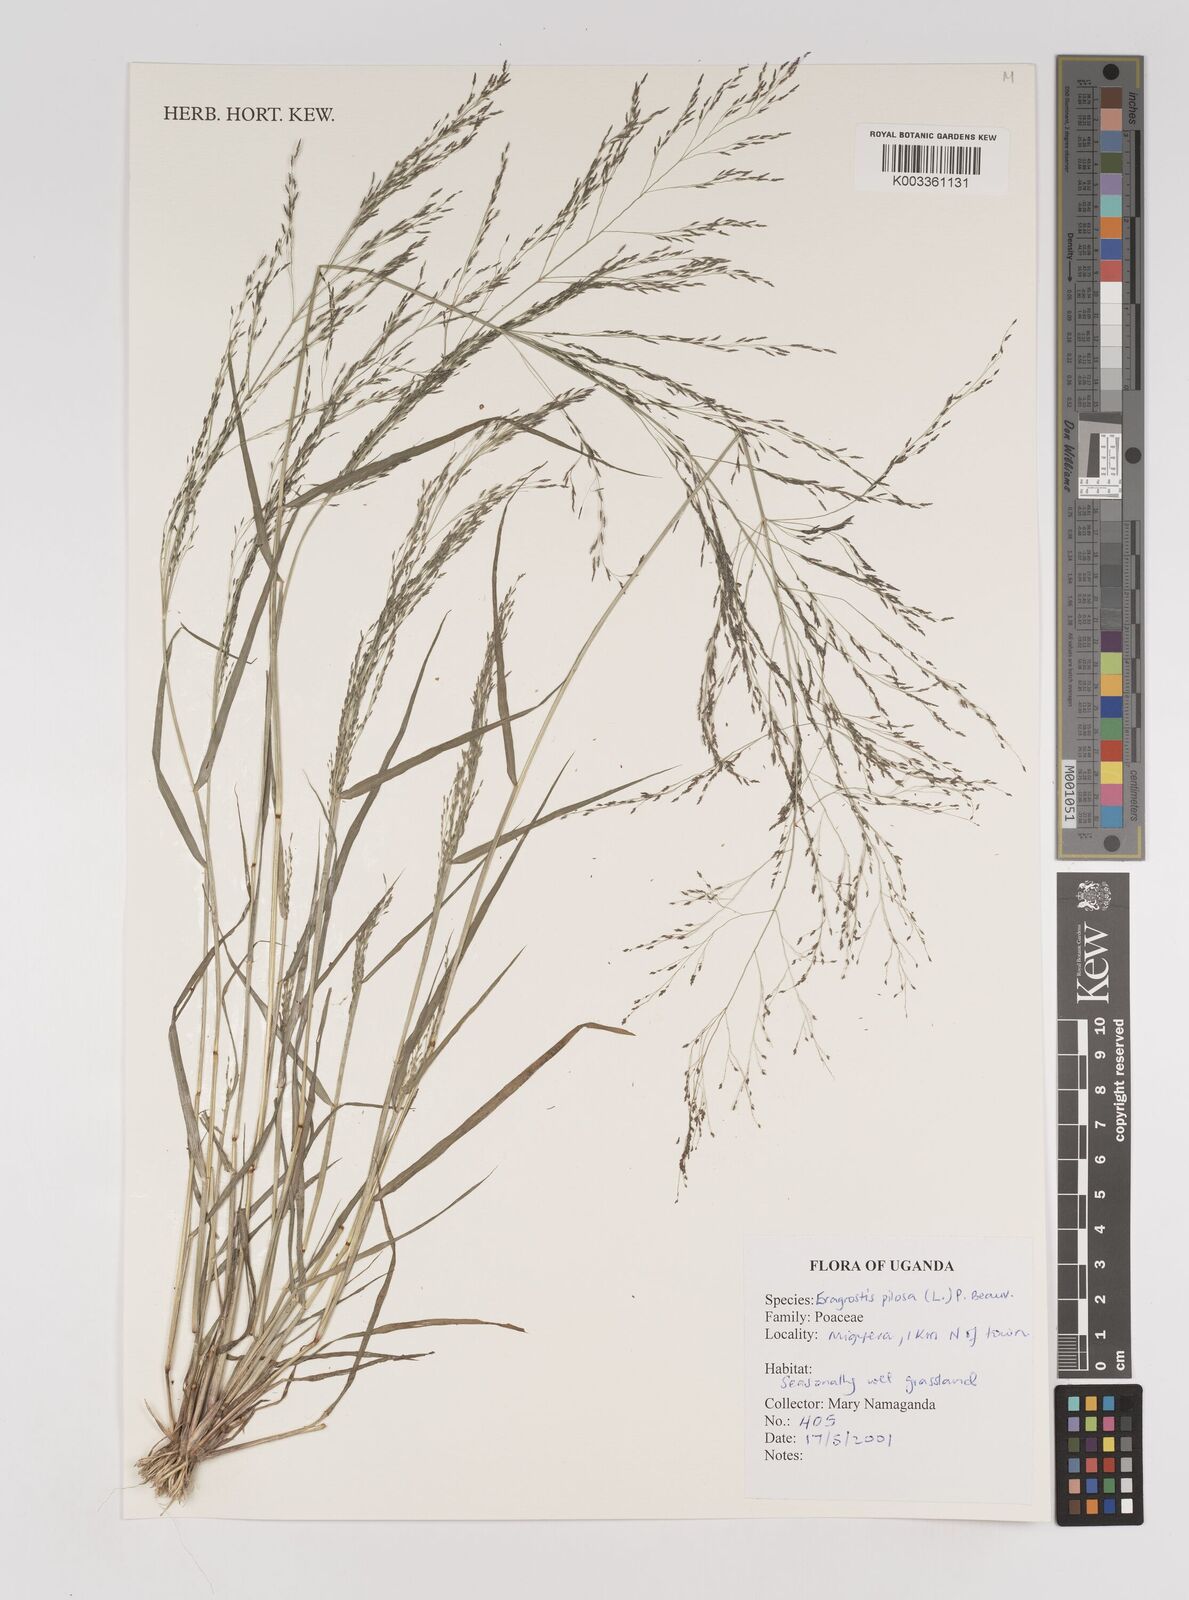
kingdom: Plantae
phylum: Tracheophyta
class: Liliopsida
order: Poales
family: Poaceae
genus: Eragrostis
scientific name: Eragrostis pilosa
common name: Indian lovegrass
